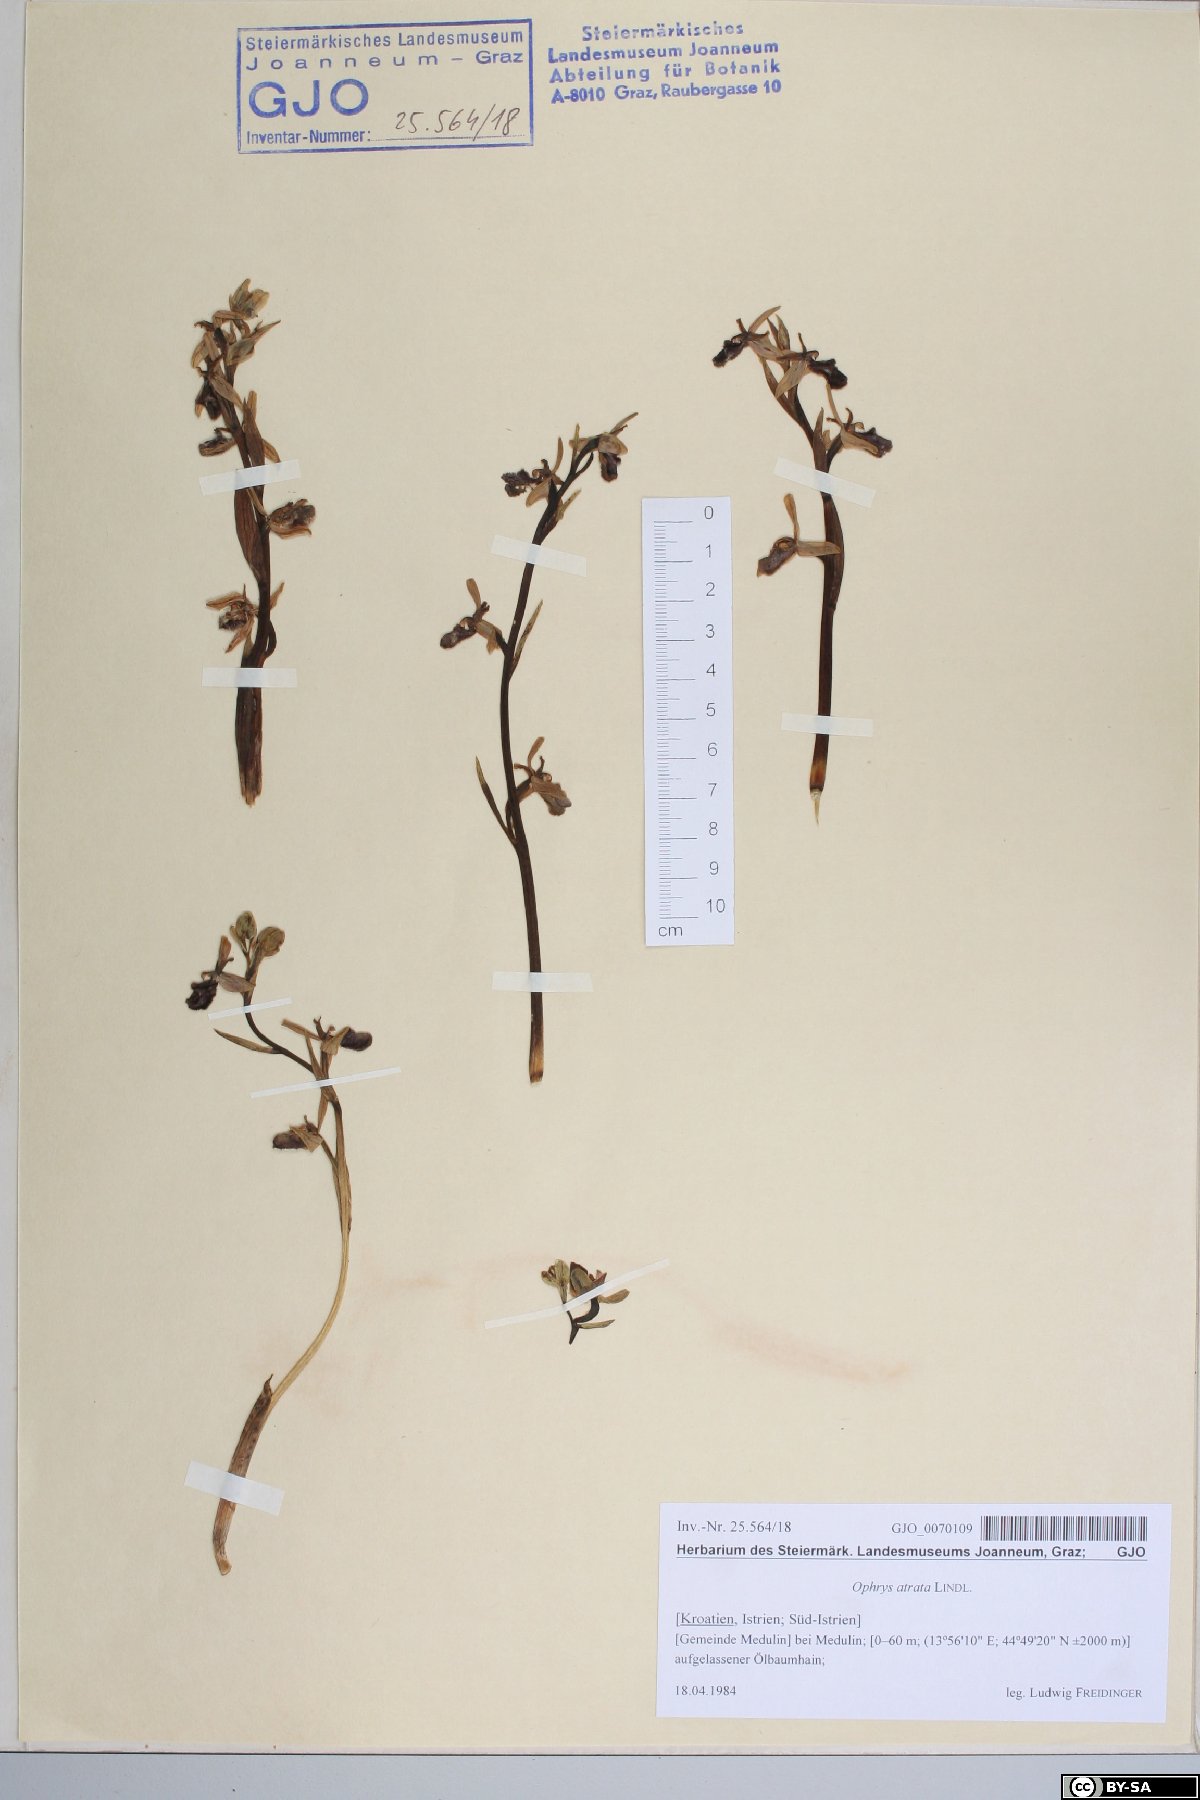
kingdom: Plantae
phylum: Tracheophyta
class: Liliopsida
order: Asparagales
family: Orchidaceae
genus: Ophrys
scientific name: Ophrys sphegodes
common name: Early spider-orchid
